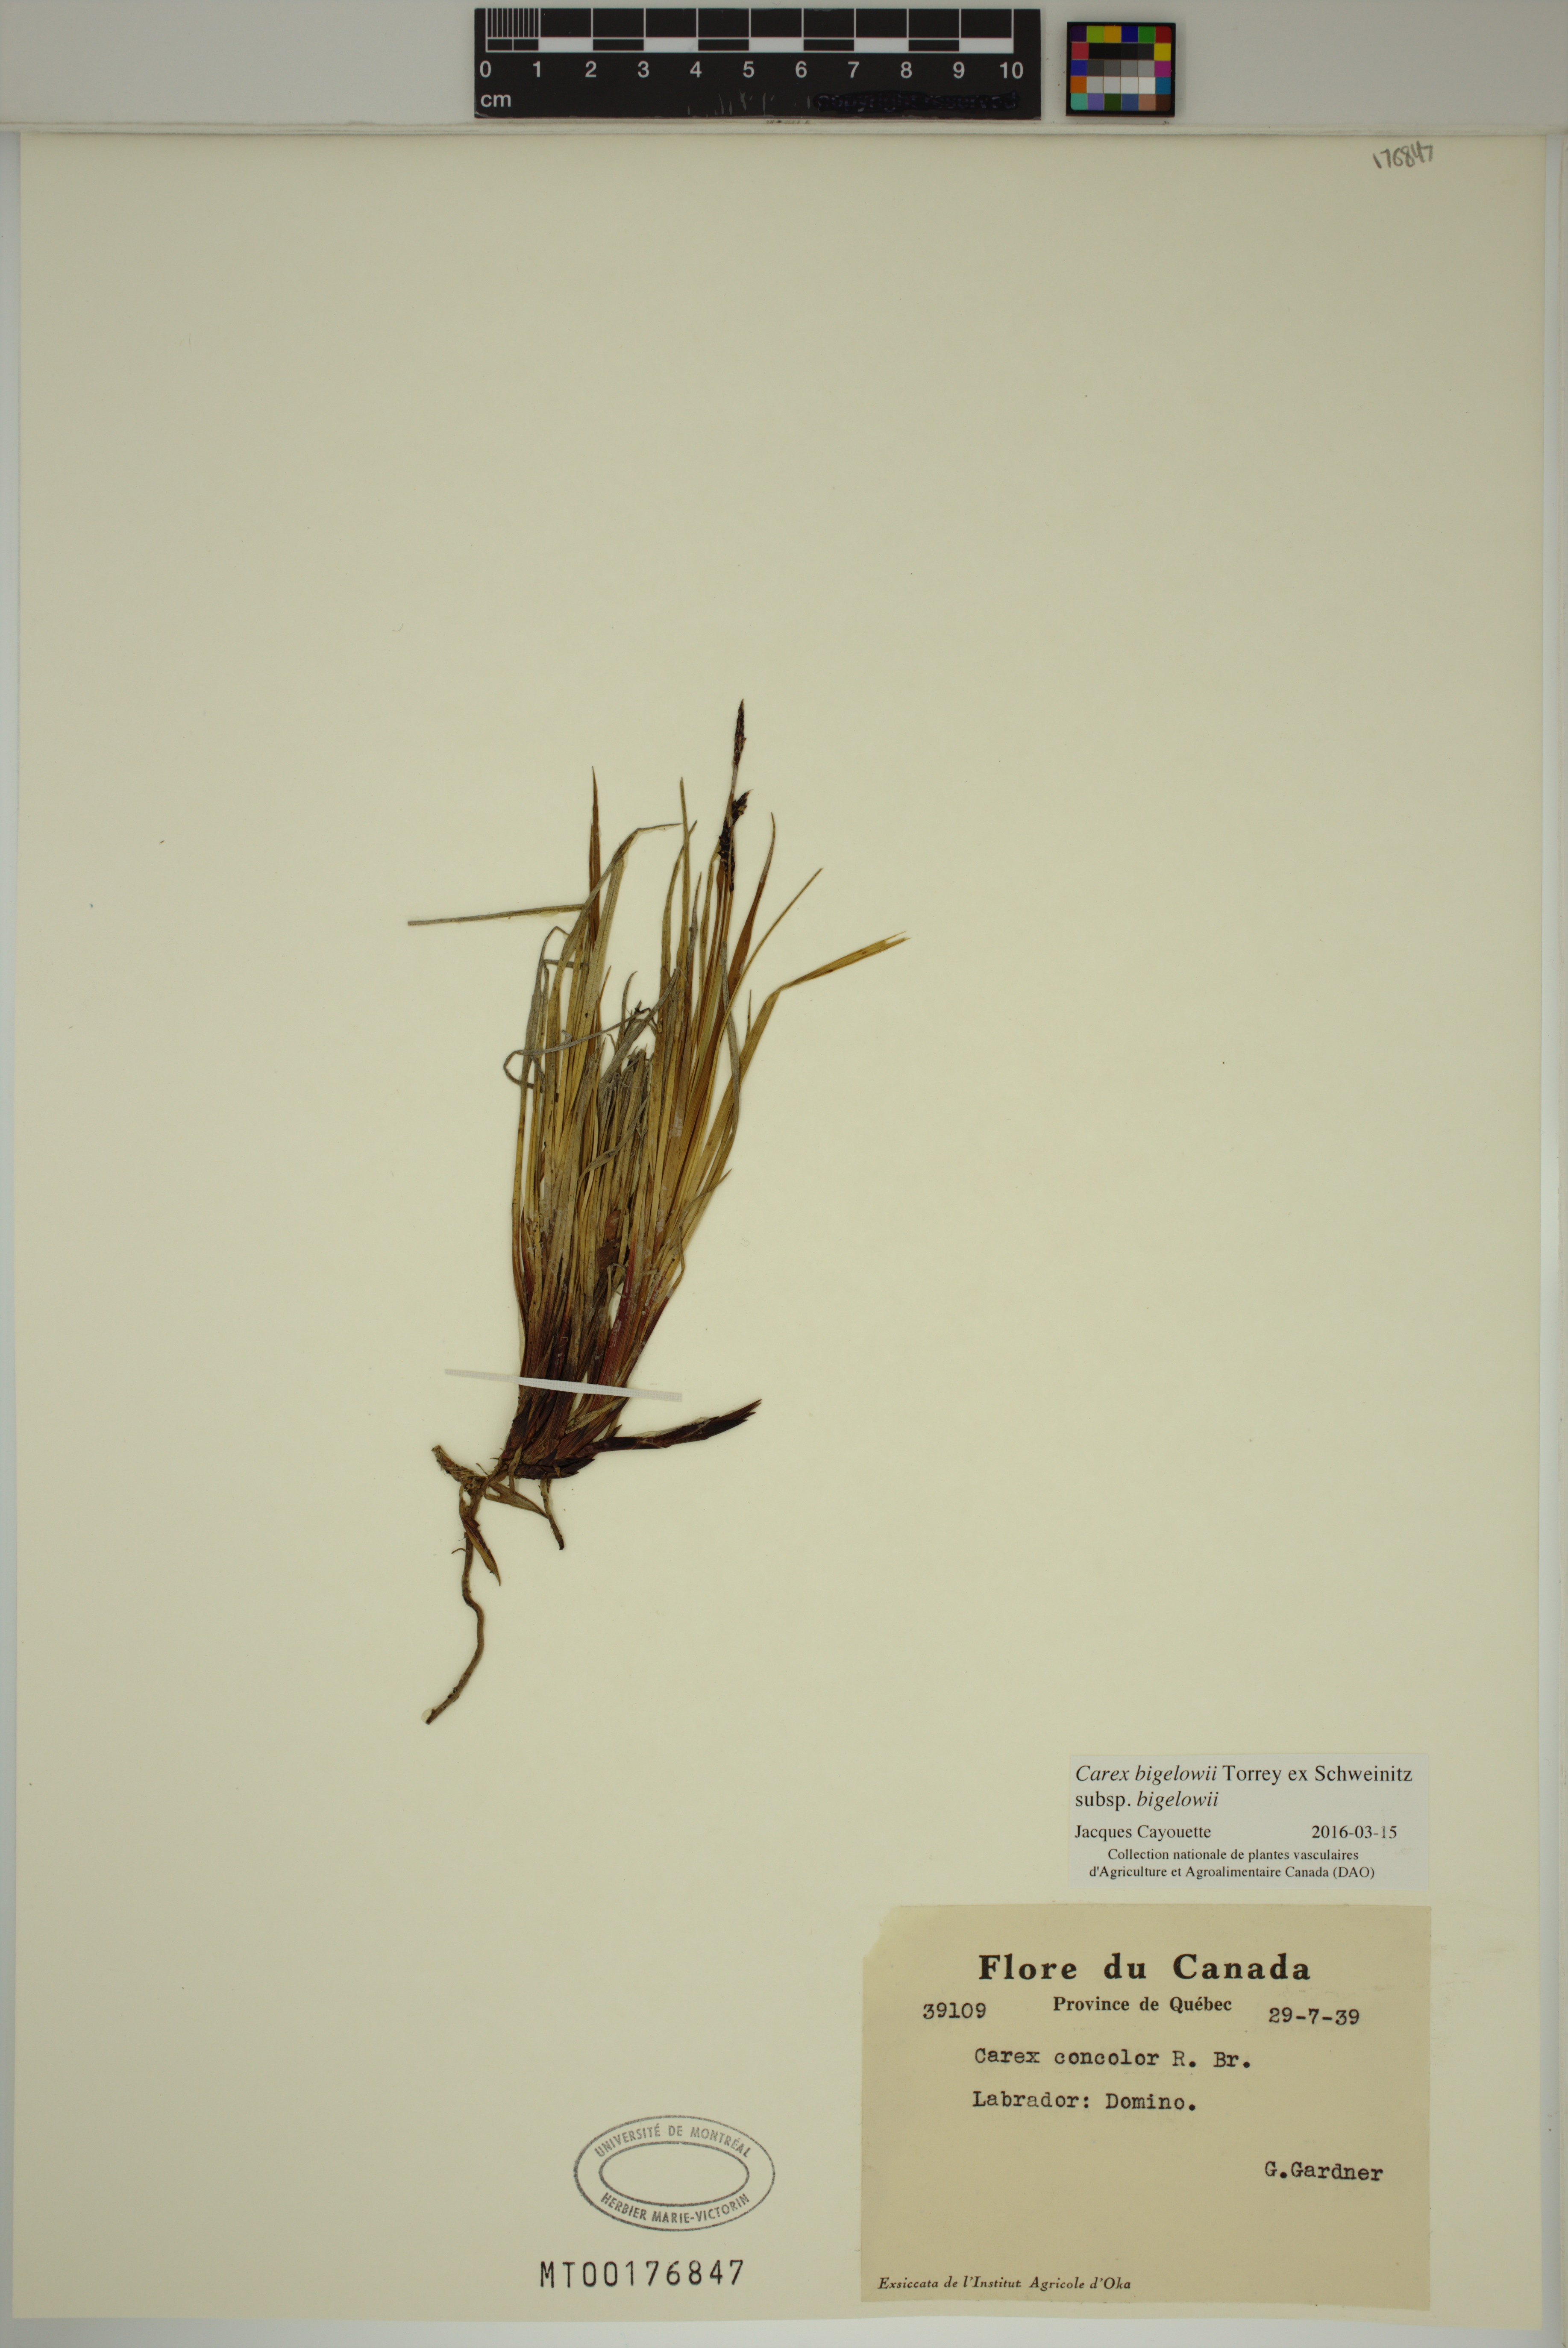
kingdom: Plantae
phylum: Tracheophyta
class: Liliopsida
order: Poales
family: Cyperaceae
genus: Carex
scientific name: Carex bigelowii
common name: Stiff sedge
